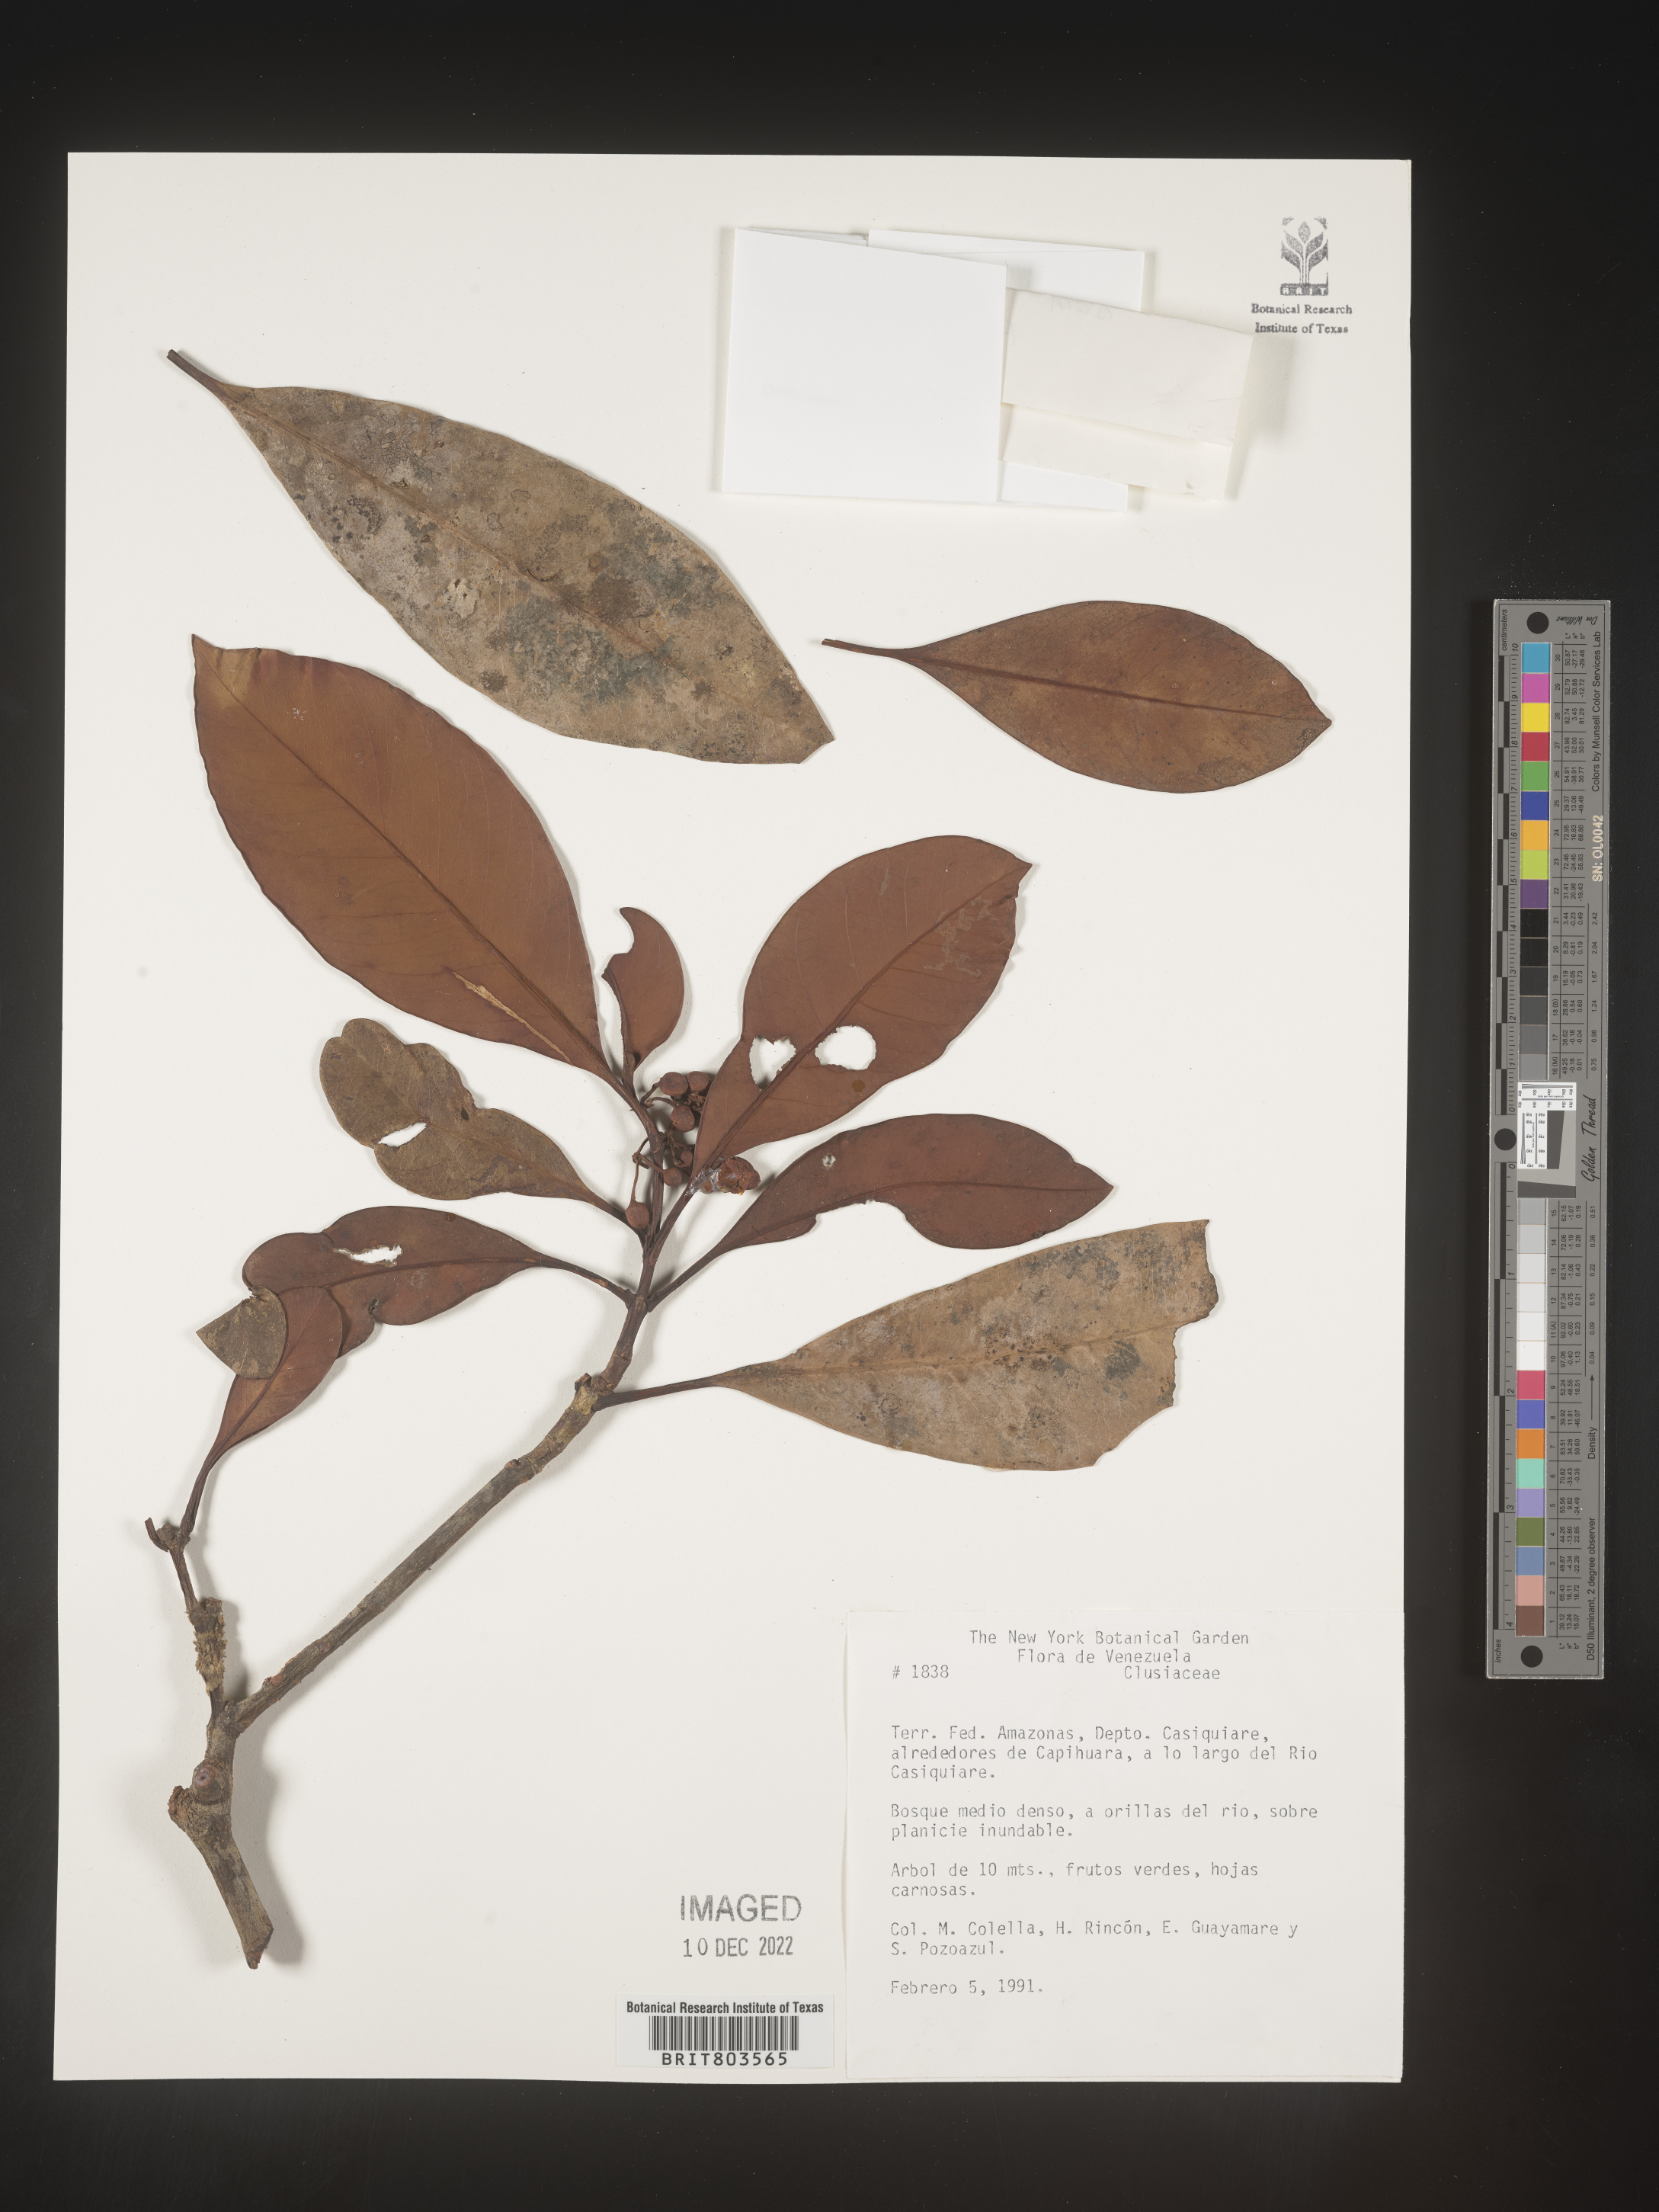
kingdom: Plantae
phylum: Tracheophyta
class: Magnoliopsida
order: Malpighiales
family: Clusiaceae
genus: Tovomita
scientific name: Tovomita
